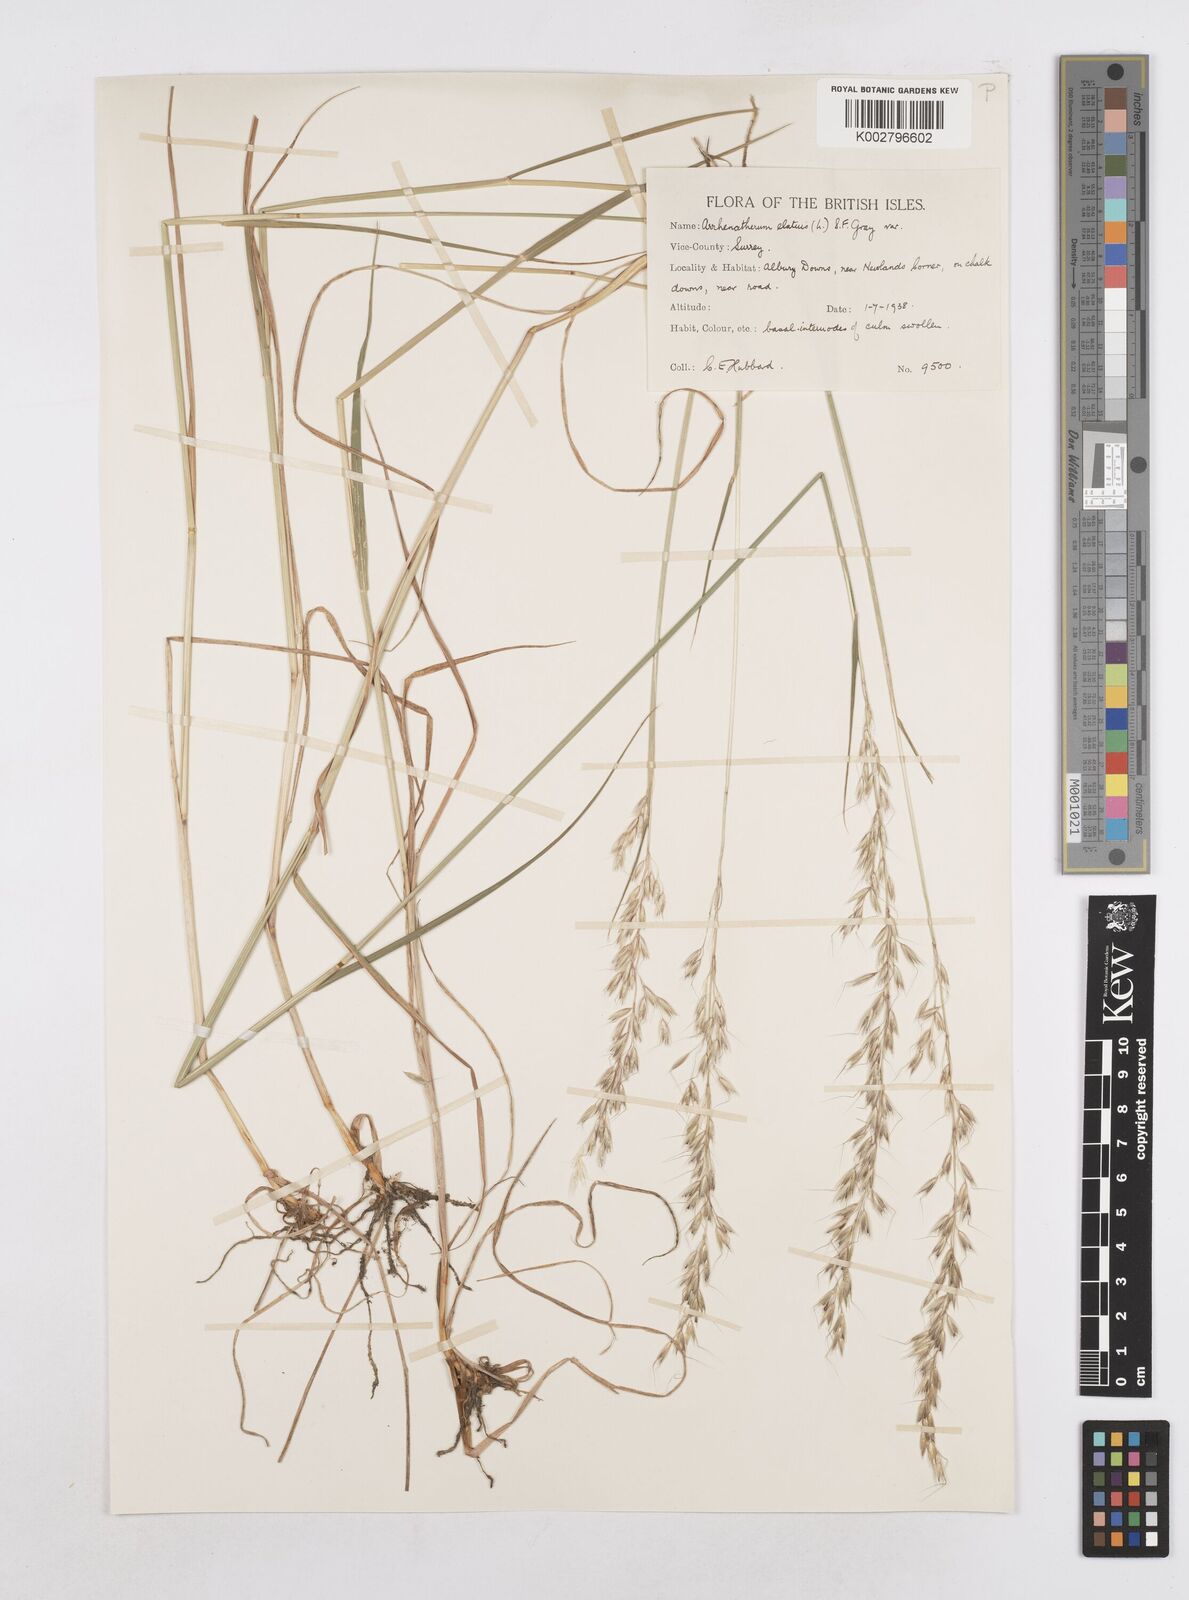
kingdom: Plantae
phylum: Tracheophyta
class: Liliopsida
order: Poales
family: Poaceae
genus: Arrhenatherum
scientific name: Arrhenatherum elatius
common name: Tall oatgrass
